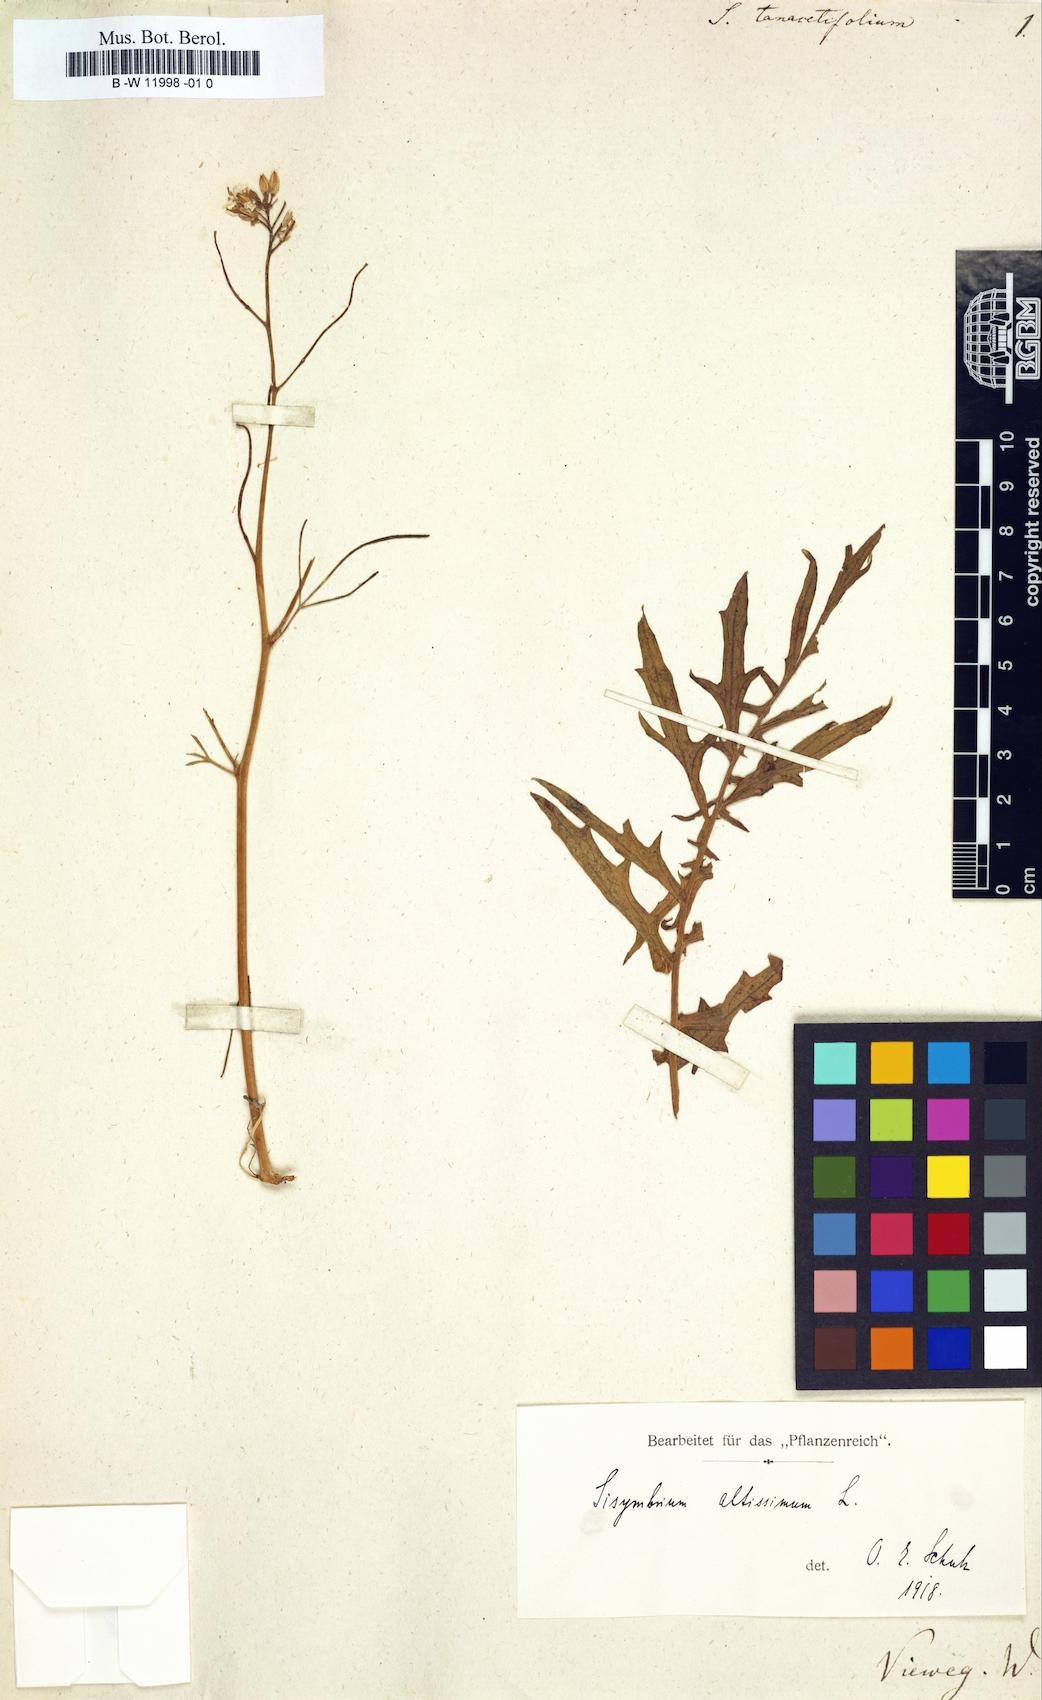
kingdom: Plantae
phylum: Tracheophyta
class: Magnoliopsida
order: Brassicales
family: Brassicaceae
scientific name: Brassicaceae
